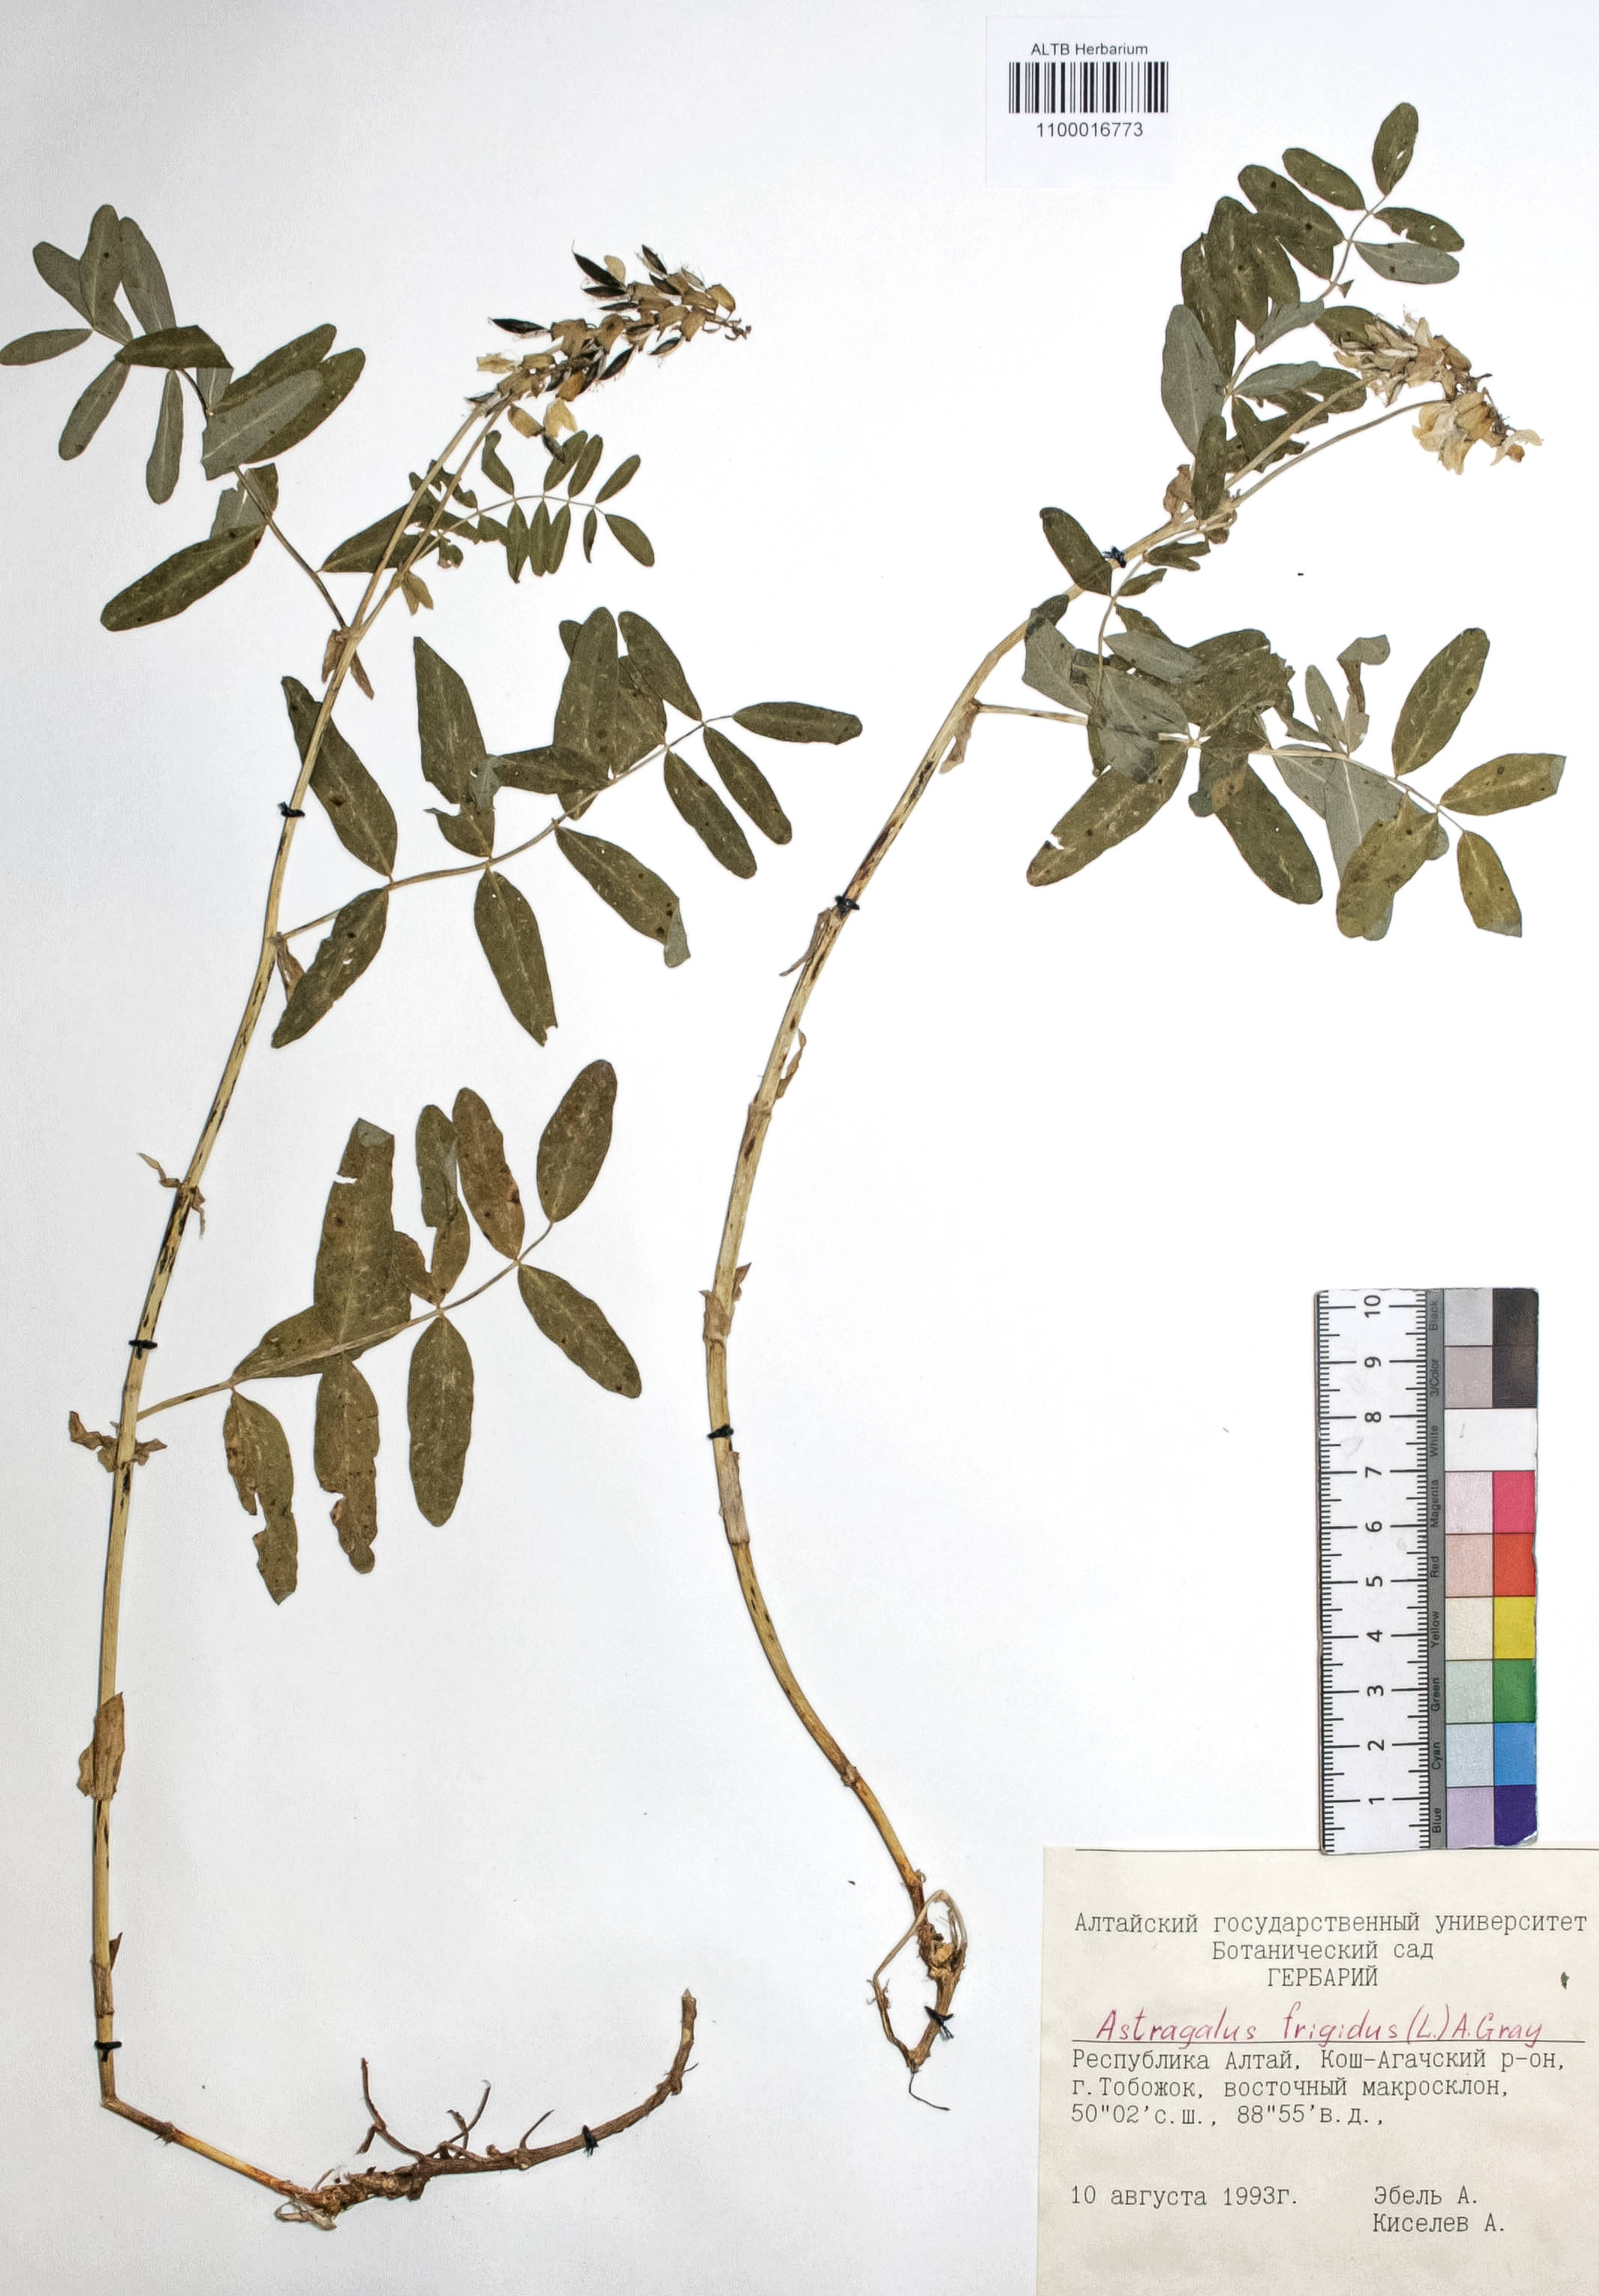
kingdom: Plantae
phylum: Tracheophyta
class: Magnoliopsida
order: Fabales
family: Fabaceae
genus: Astragalus
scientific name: Astragalus frigidus
